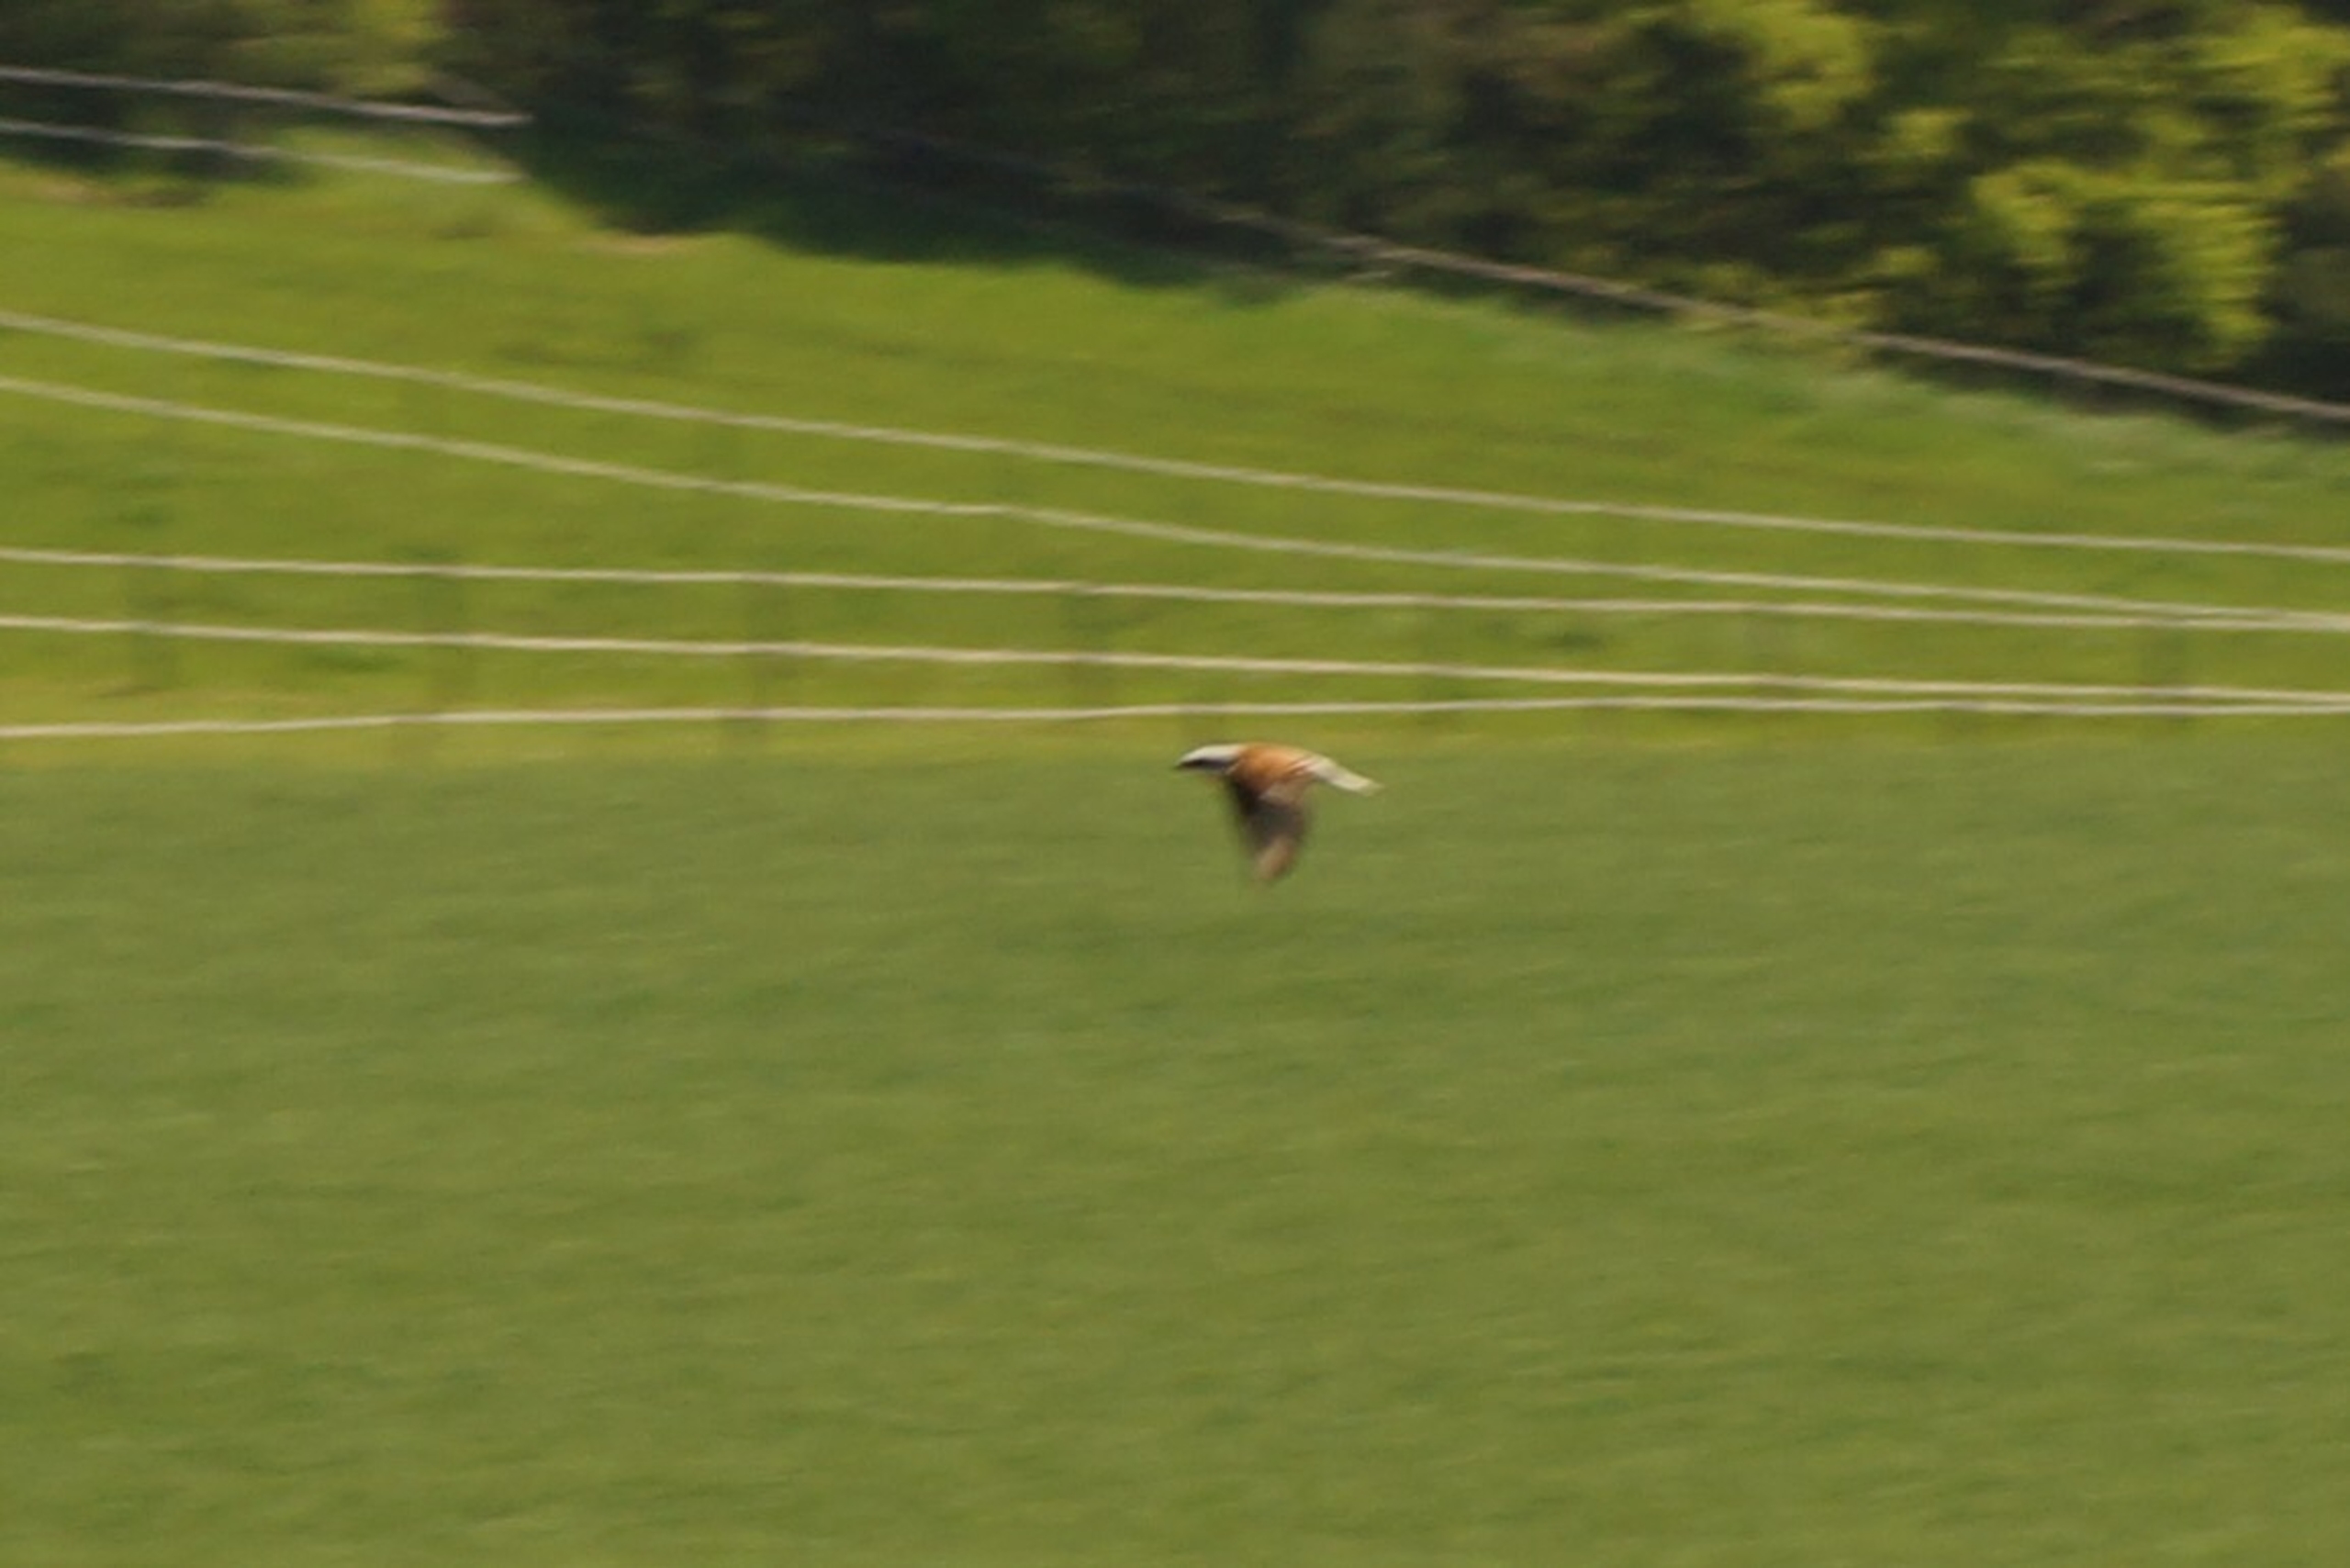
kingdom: Animalia
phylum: Chordata
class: Aves
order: Passeriformes
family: Laniidae
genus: Lanius
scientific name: Lanius collurio
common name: Rødrygget tornskade
